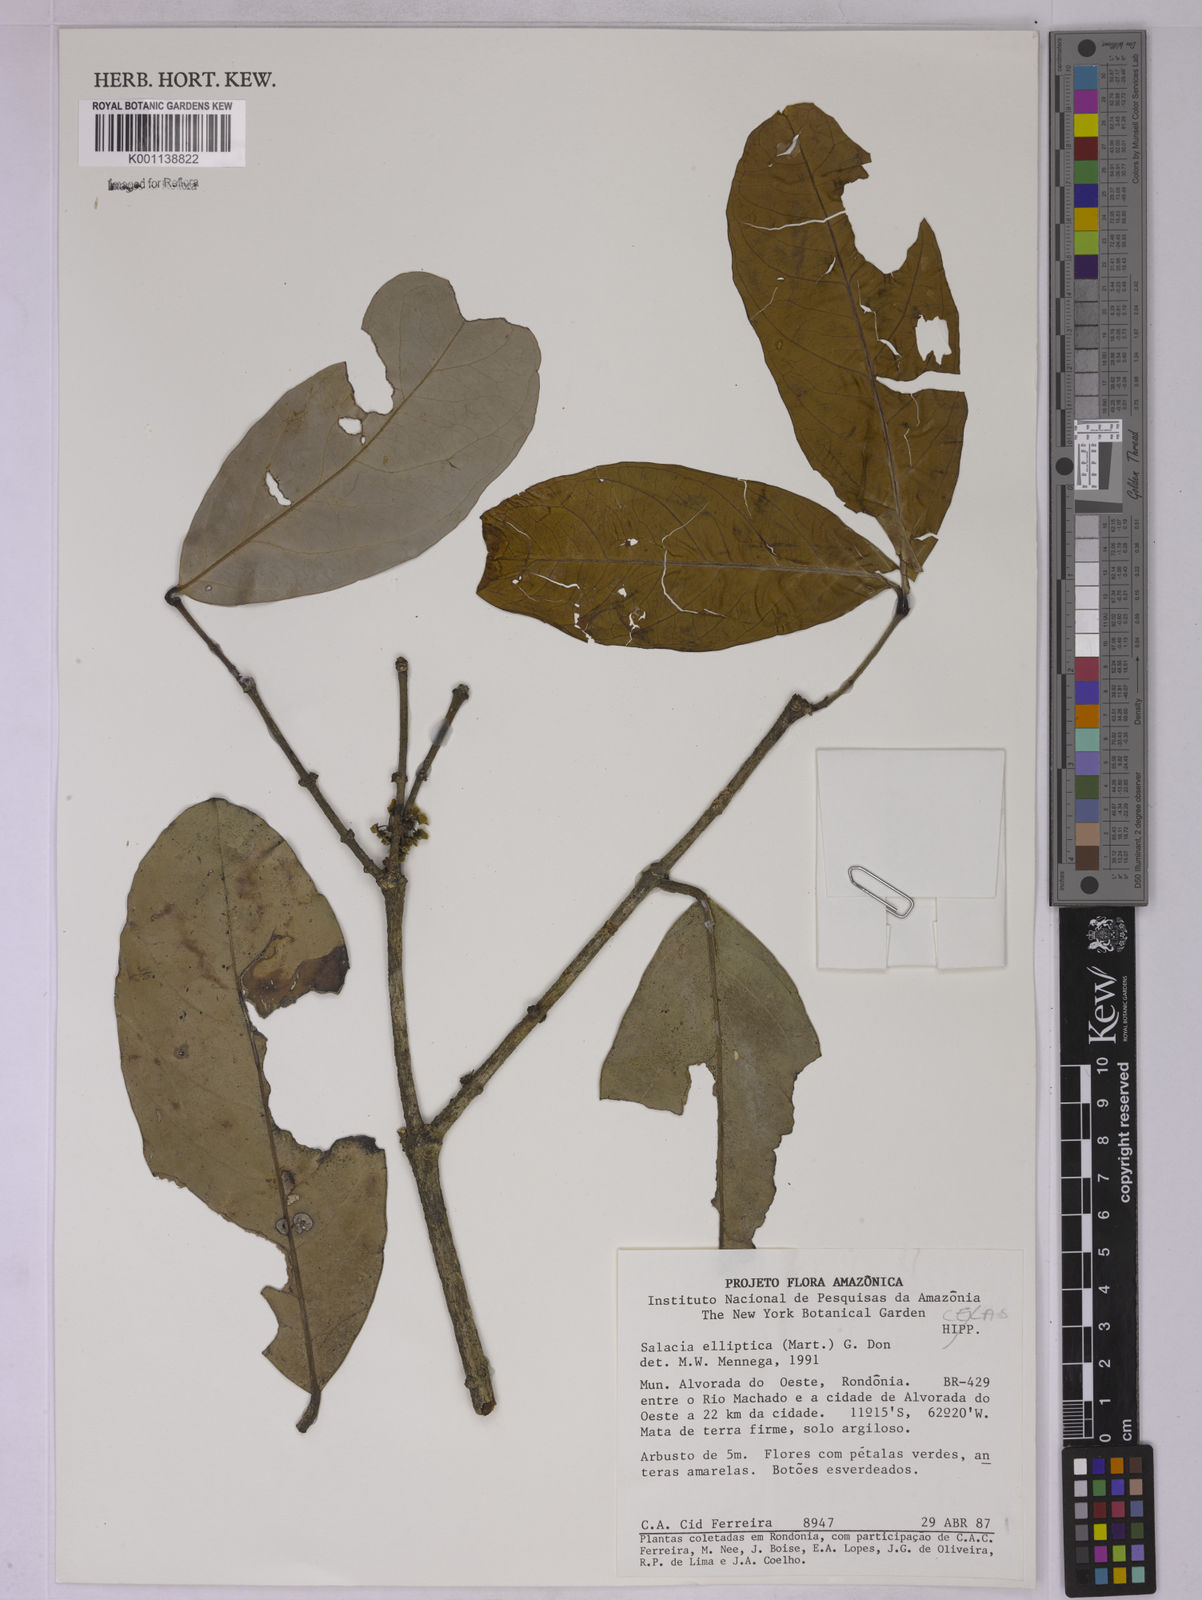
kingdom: Plantae
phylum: Tracheophyta
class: Magnoliopsida
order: Celastrales
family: Celastraceae
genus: Salacia
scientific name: Salacia elliptica
